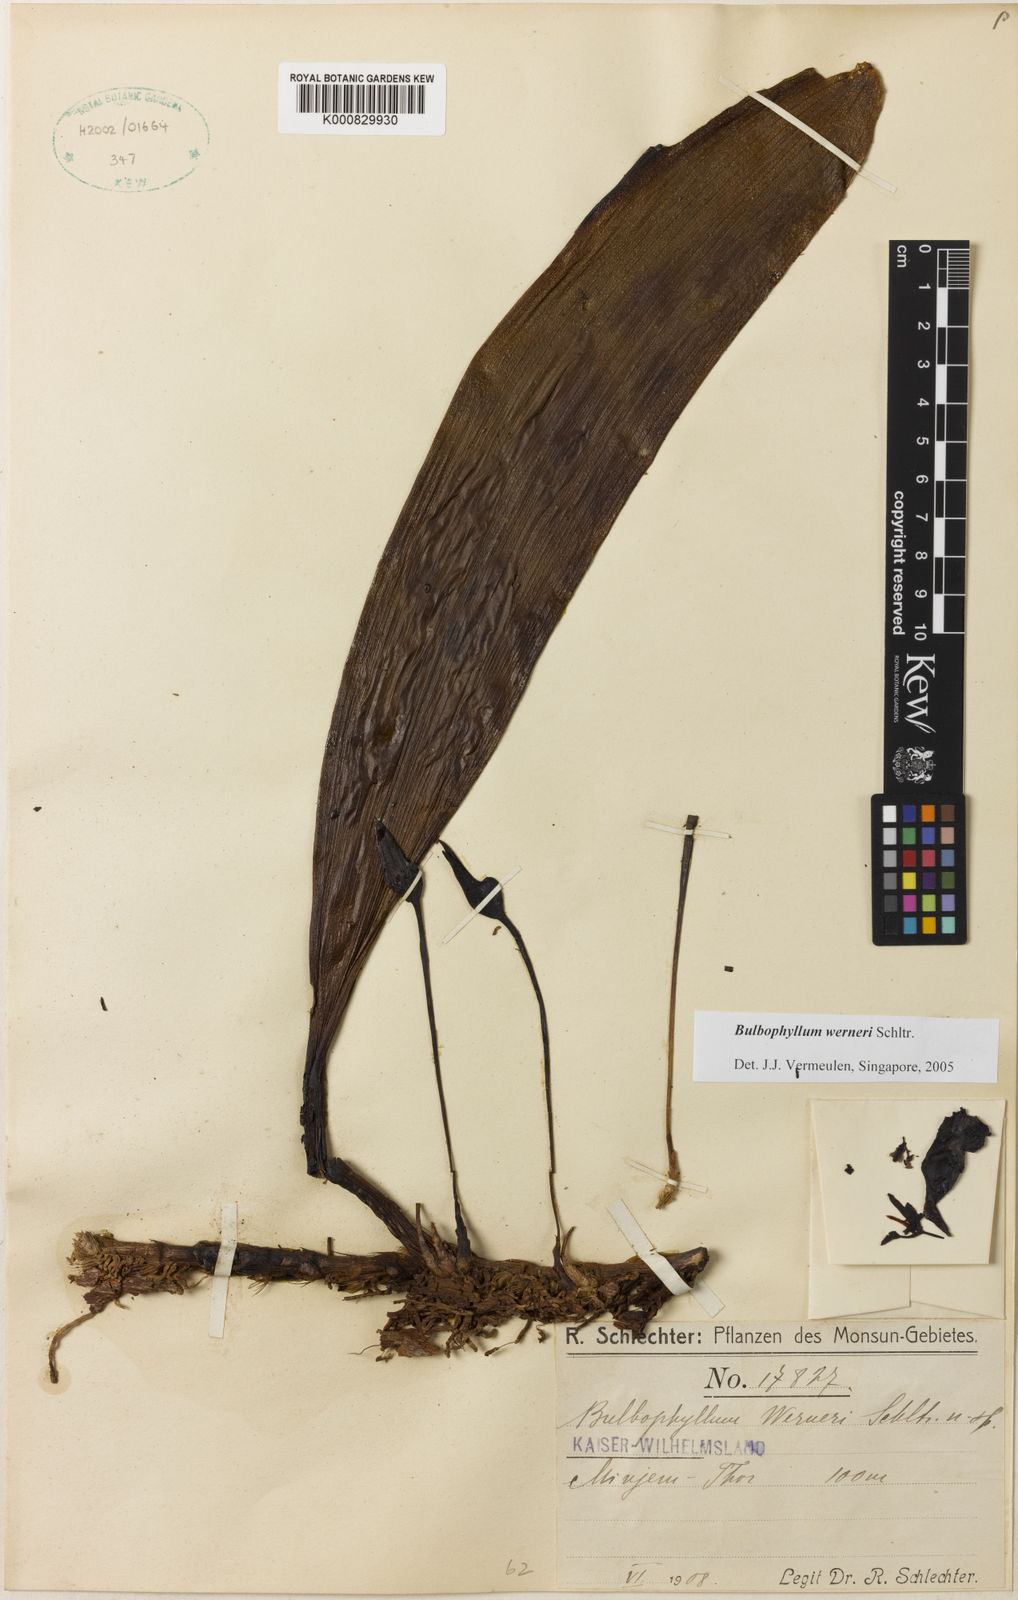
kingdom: Plantae
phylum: Tracheophyta
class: Liliopsida
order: Asparagales
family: Orchidaceae
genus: Bulbophyllum
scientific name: Bulbophyllum werneri
